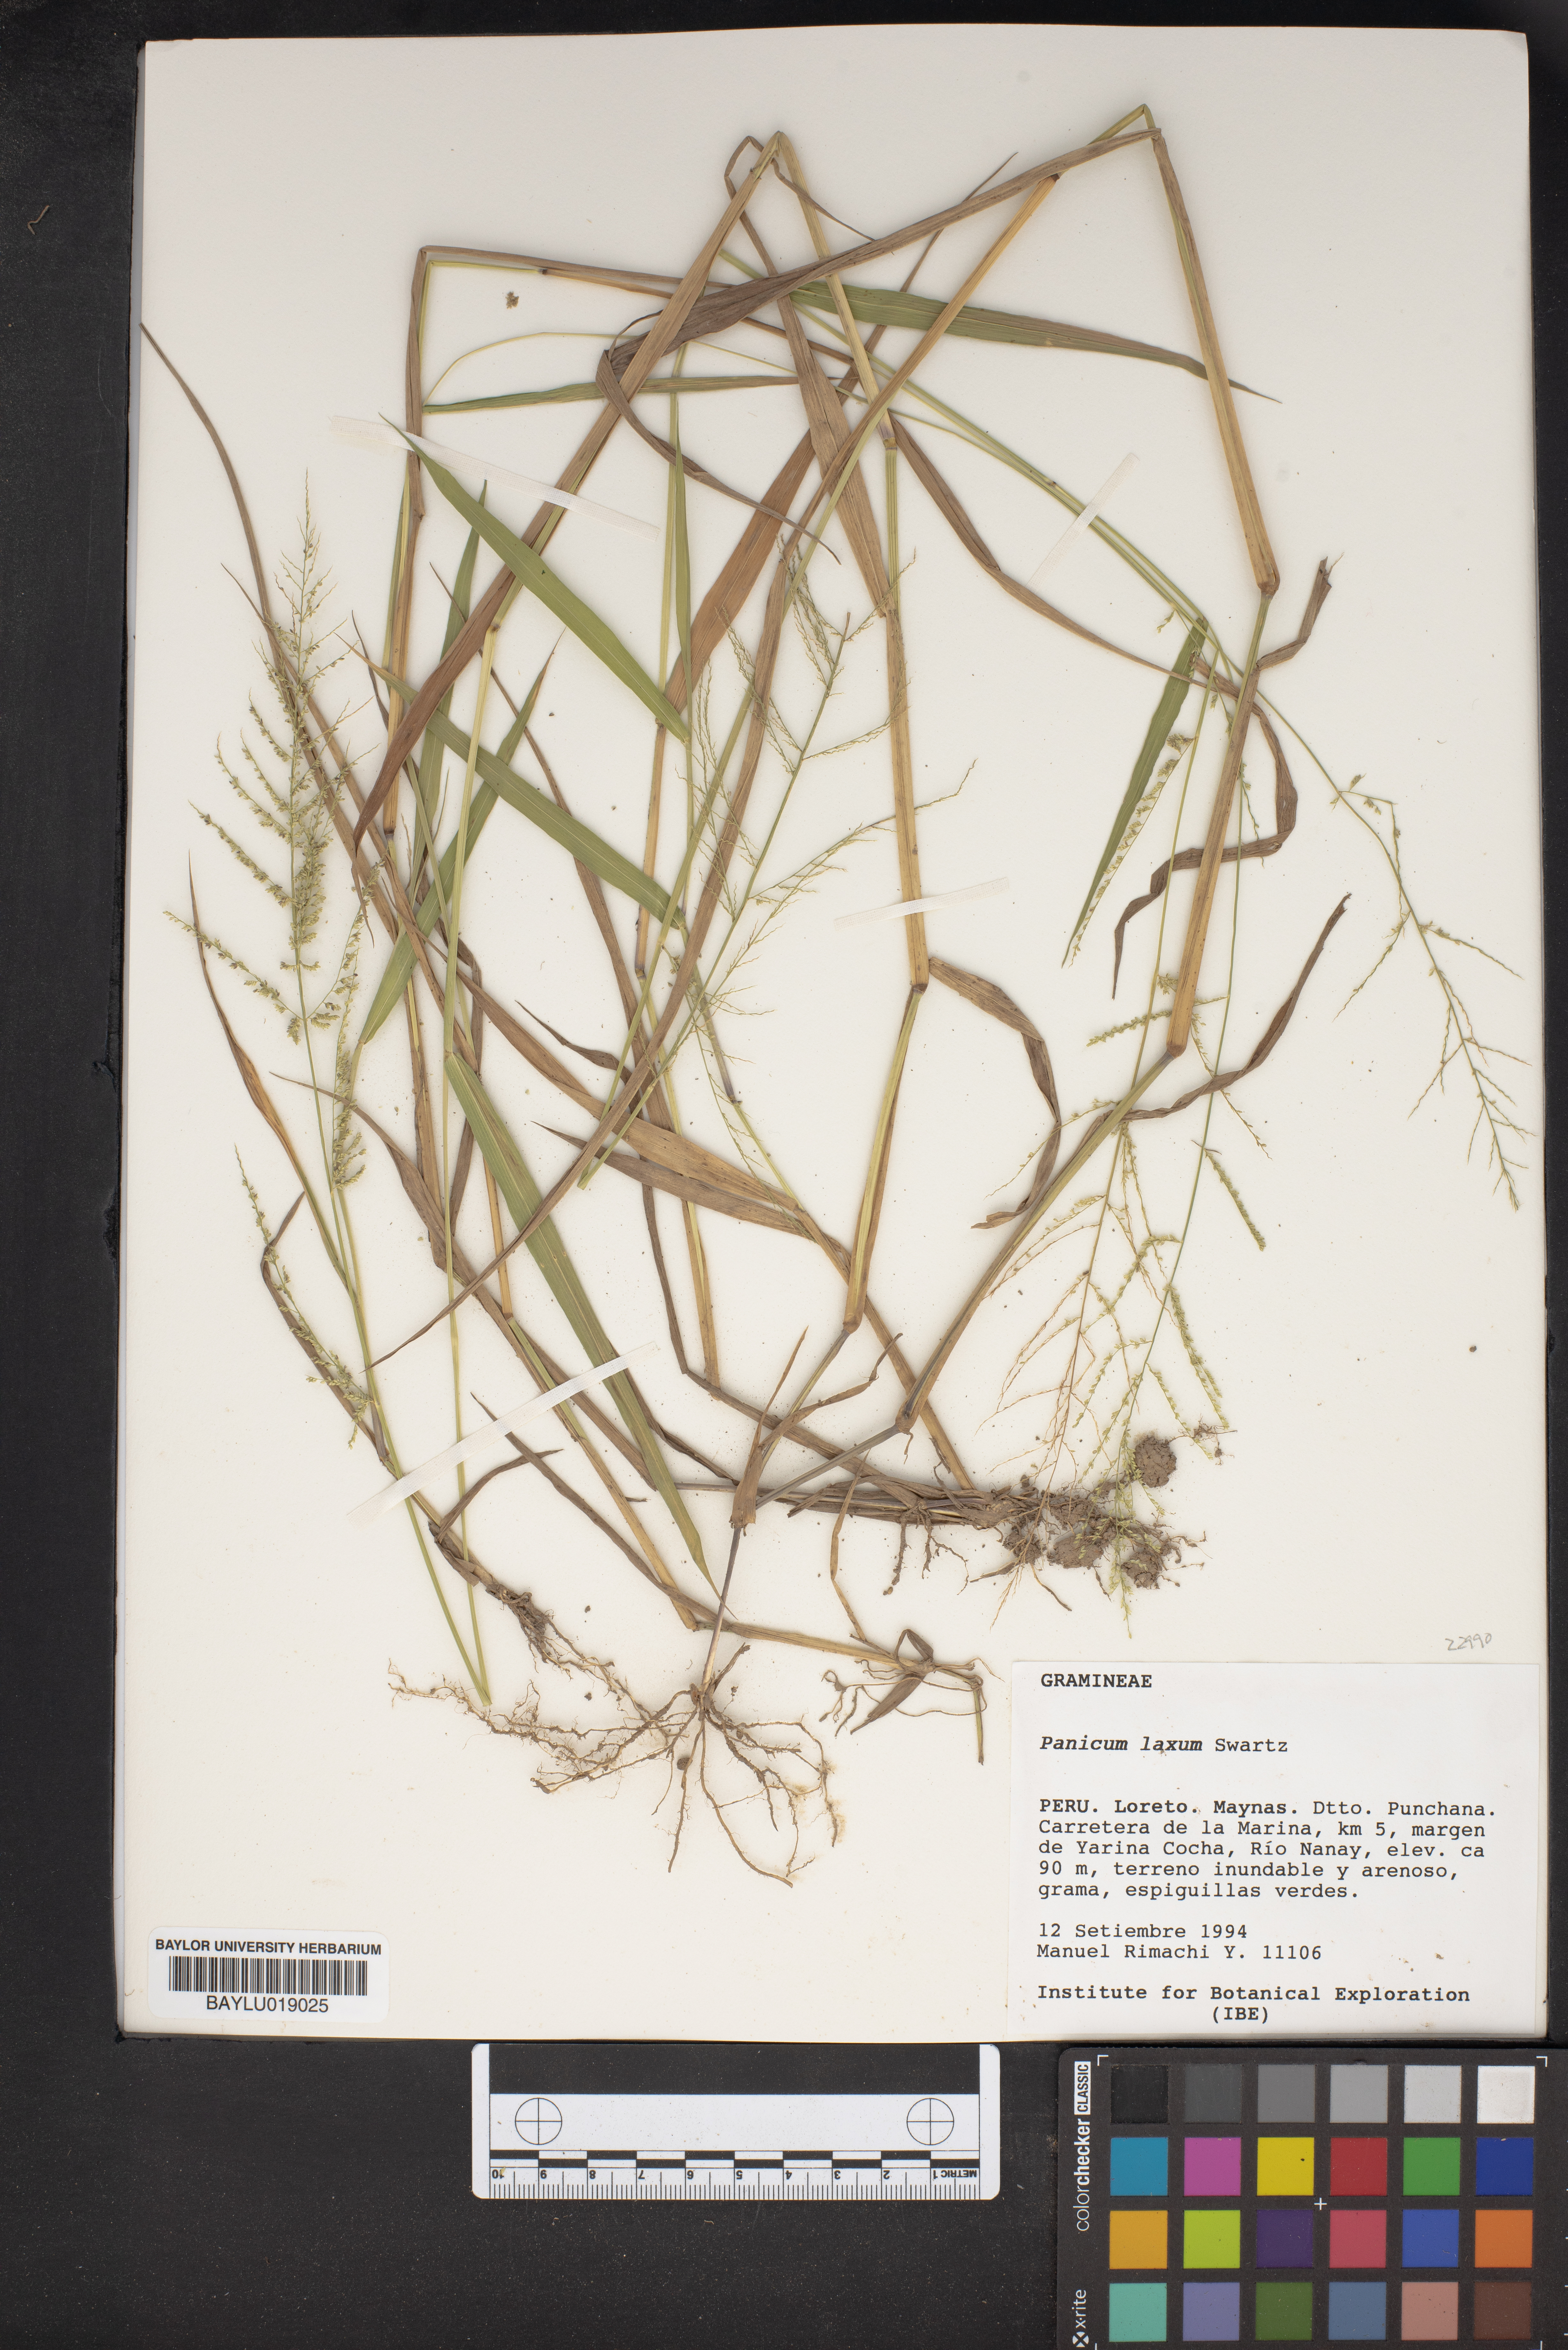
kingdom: Plantae
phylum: Tracheophyta
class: Liliopsida
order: Poales
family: Poaceae
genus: Steinchisma
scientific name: Steinchisma laxum
